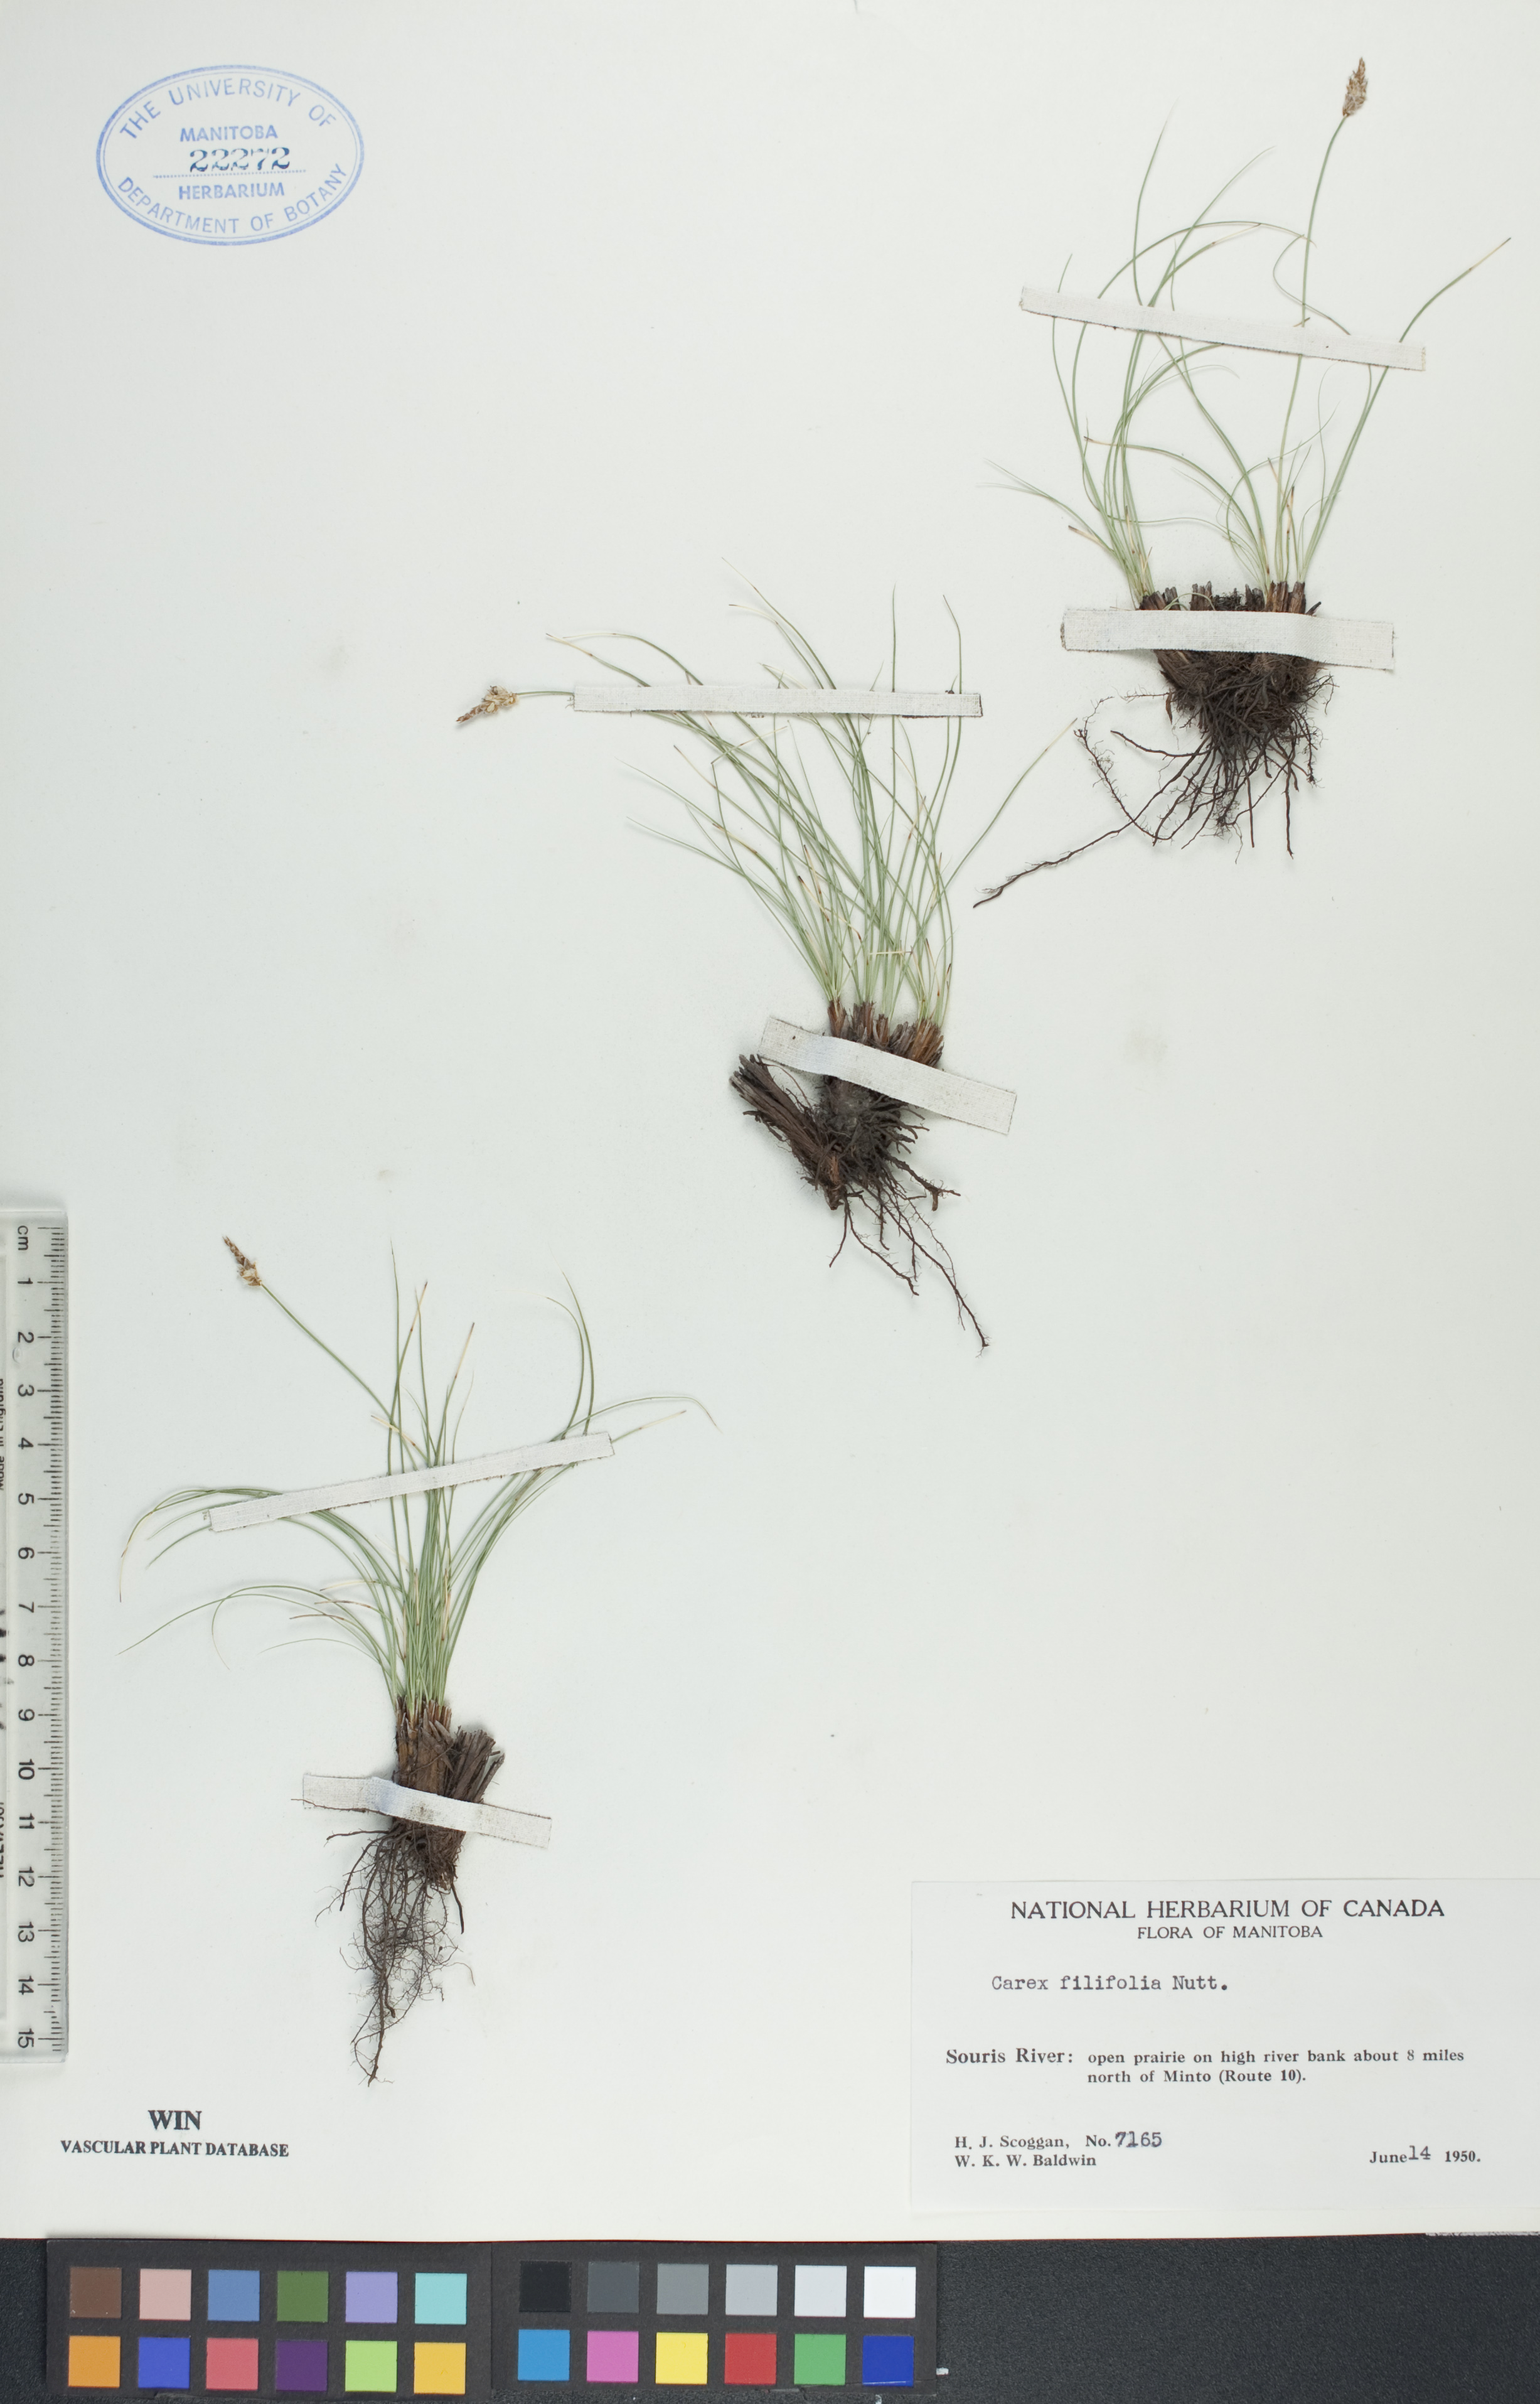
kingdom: Plantae
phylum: Tracheophyta
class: Liliopsida
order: Poales
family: Cyperaceae
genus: Carex
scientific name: Carex filifolia
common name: Threadleaf sedge
